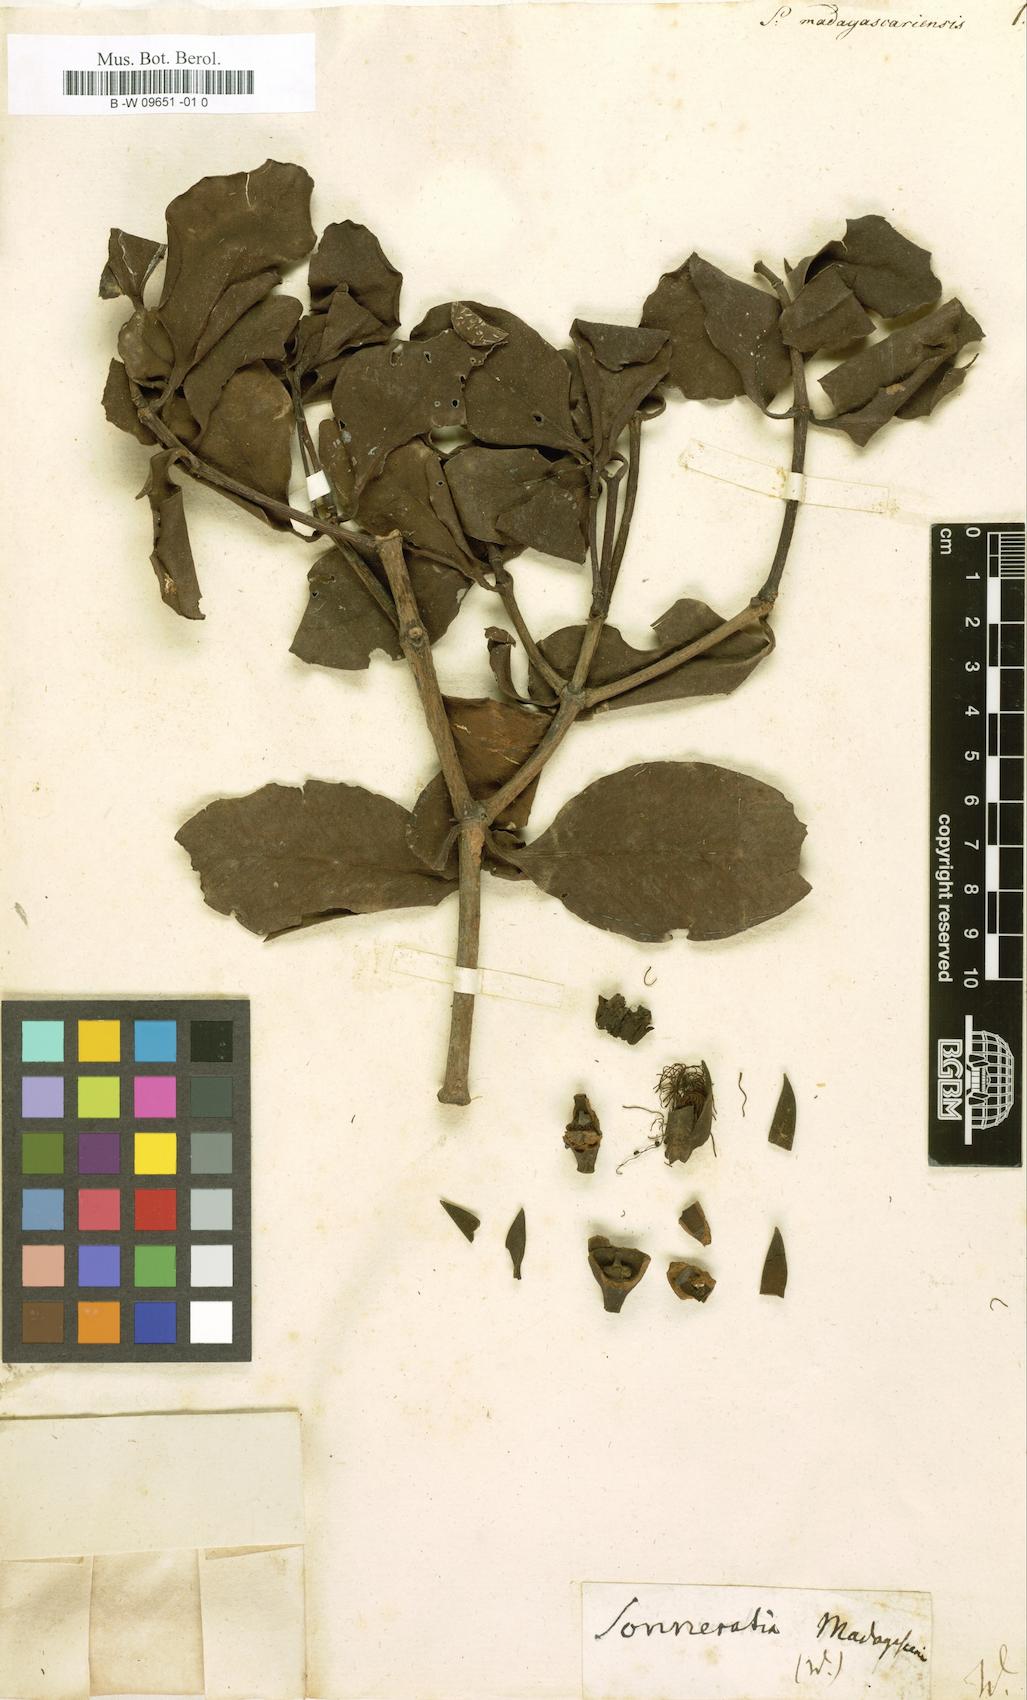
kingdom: Plantae
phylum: Tracheophyta
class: Magnoliopsida
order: Myrtales
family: Lythraceae
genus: Sonneratia
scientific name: Sonneratia
